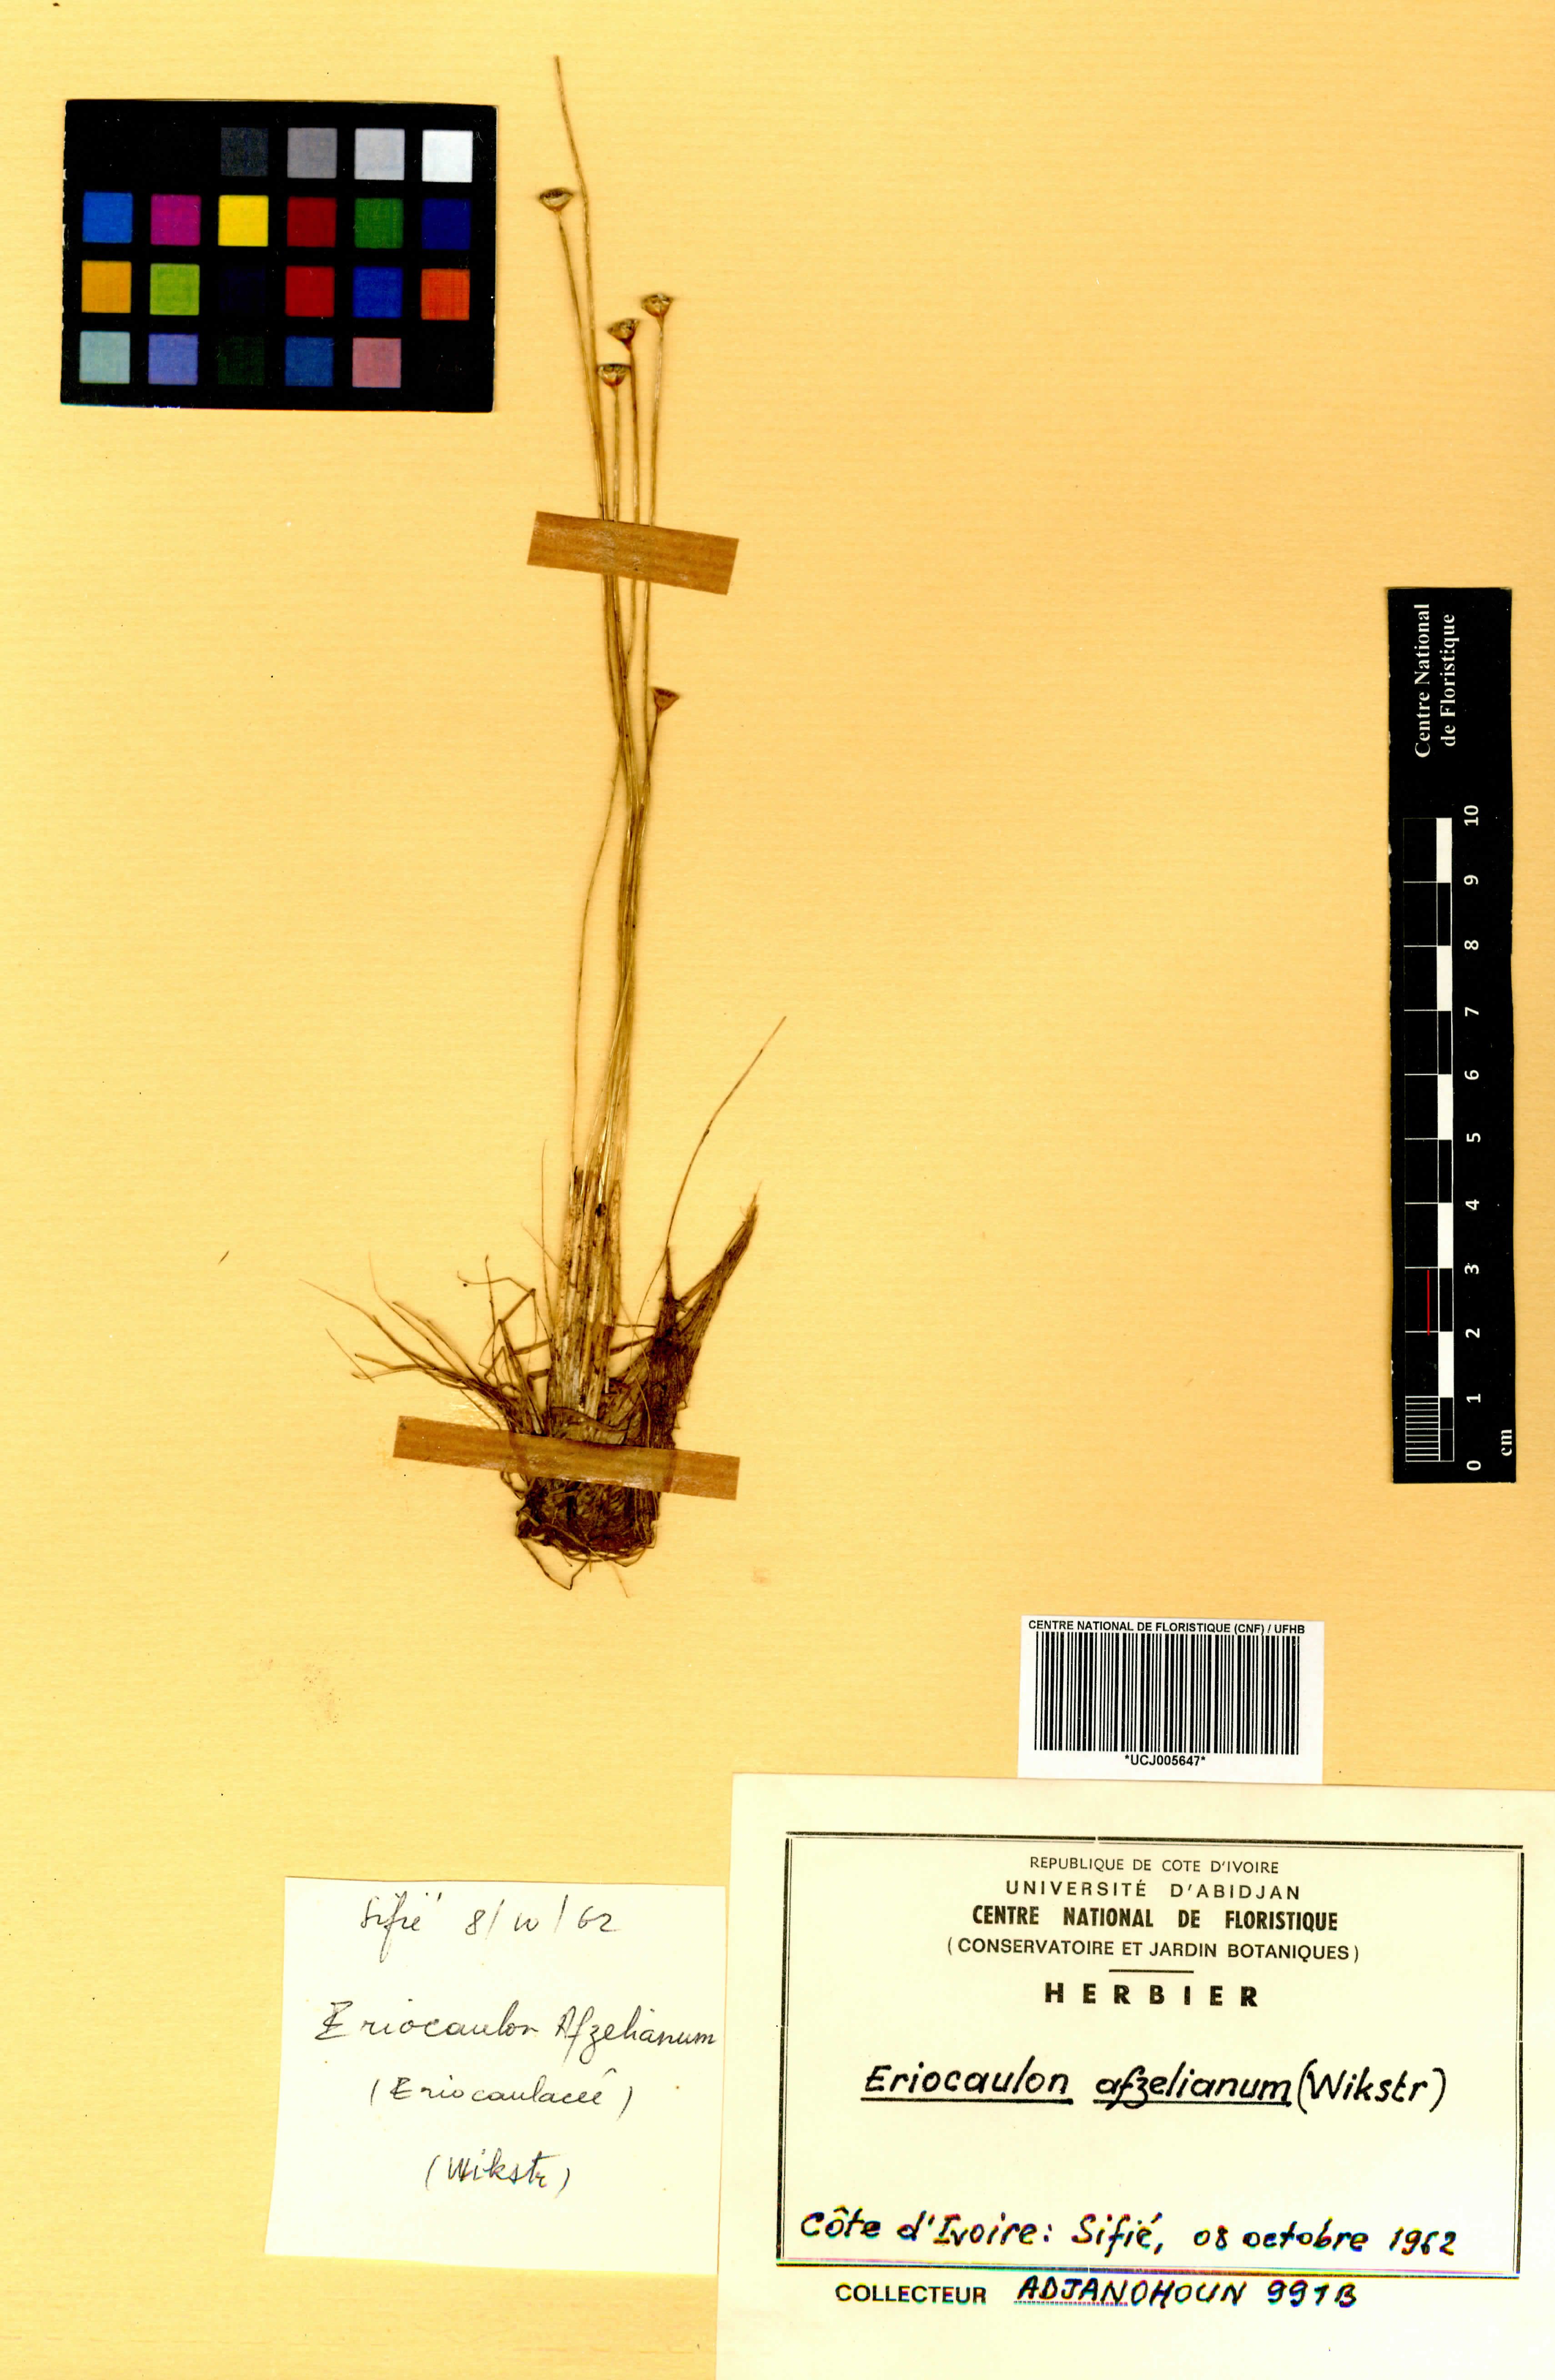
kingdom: Plantae
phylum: Tracheophyta
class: Liliopsida
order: Poales
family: Eriocaulaceae
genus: Eriocaulon
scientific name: Eriocaulon afzelianum
